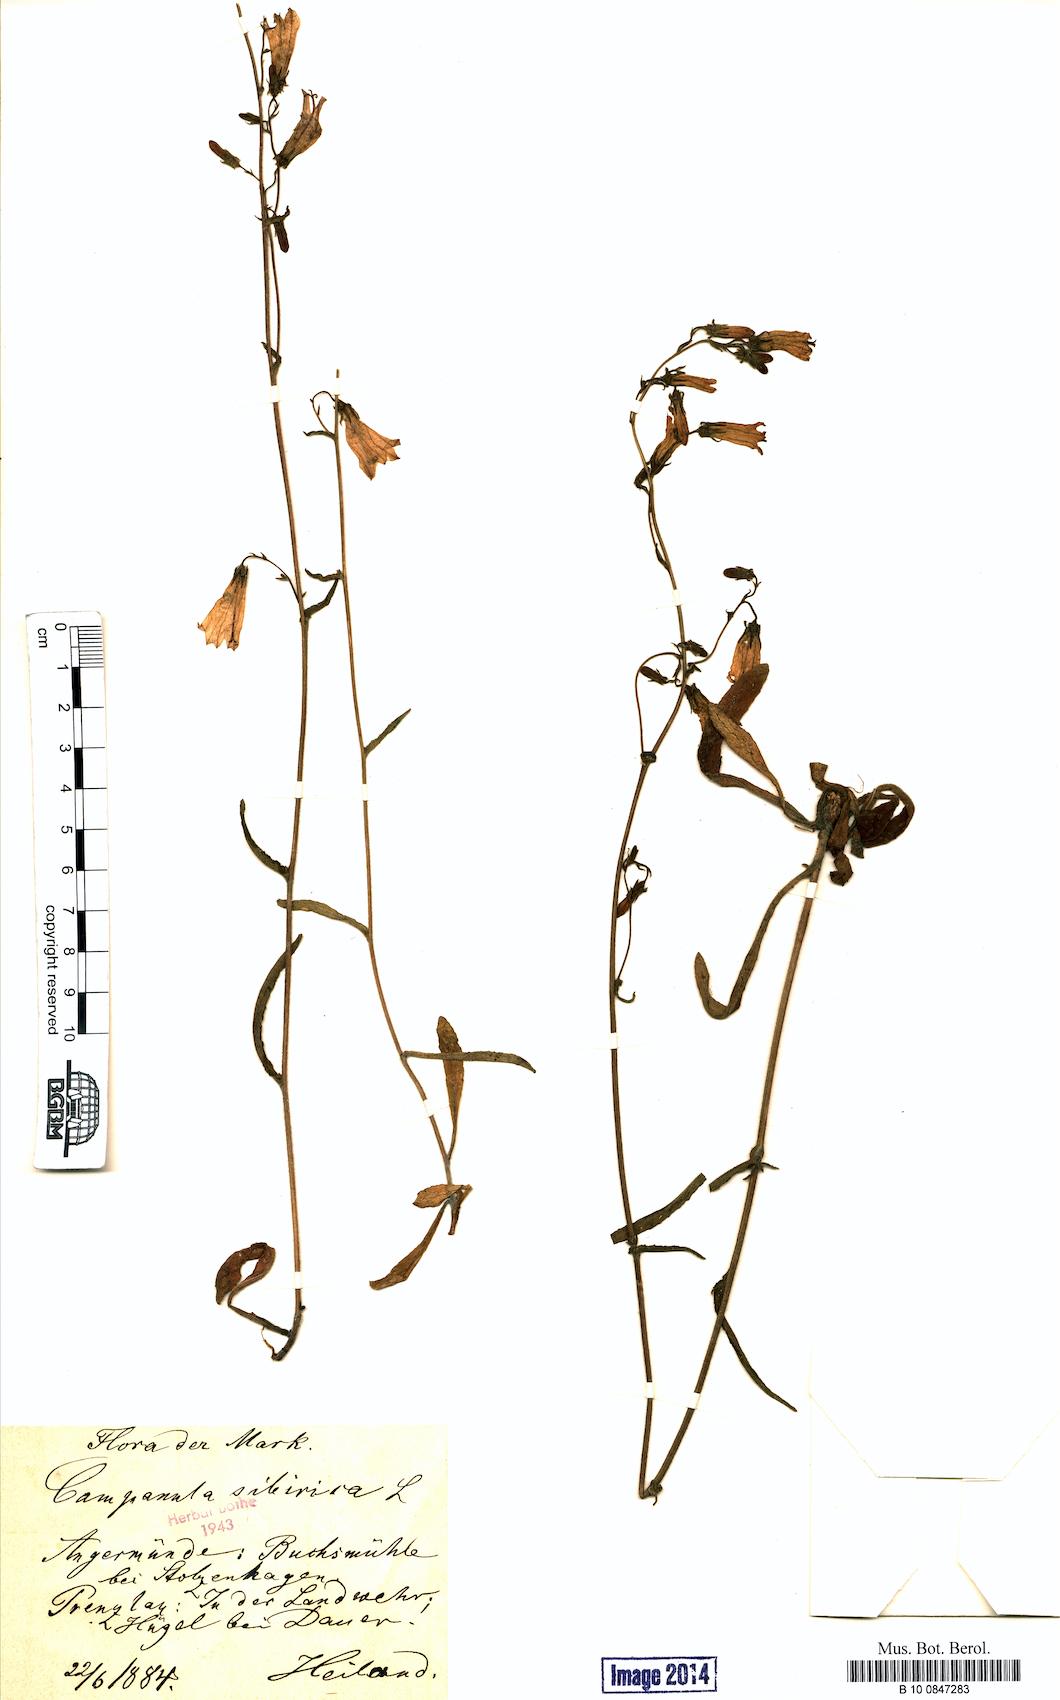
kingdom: Plantae
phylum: Tracheophyta
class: Magnoliopsida
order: Asterales
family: Campanulaceae
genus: Campanula
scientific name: Campanula sibirica
